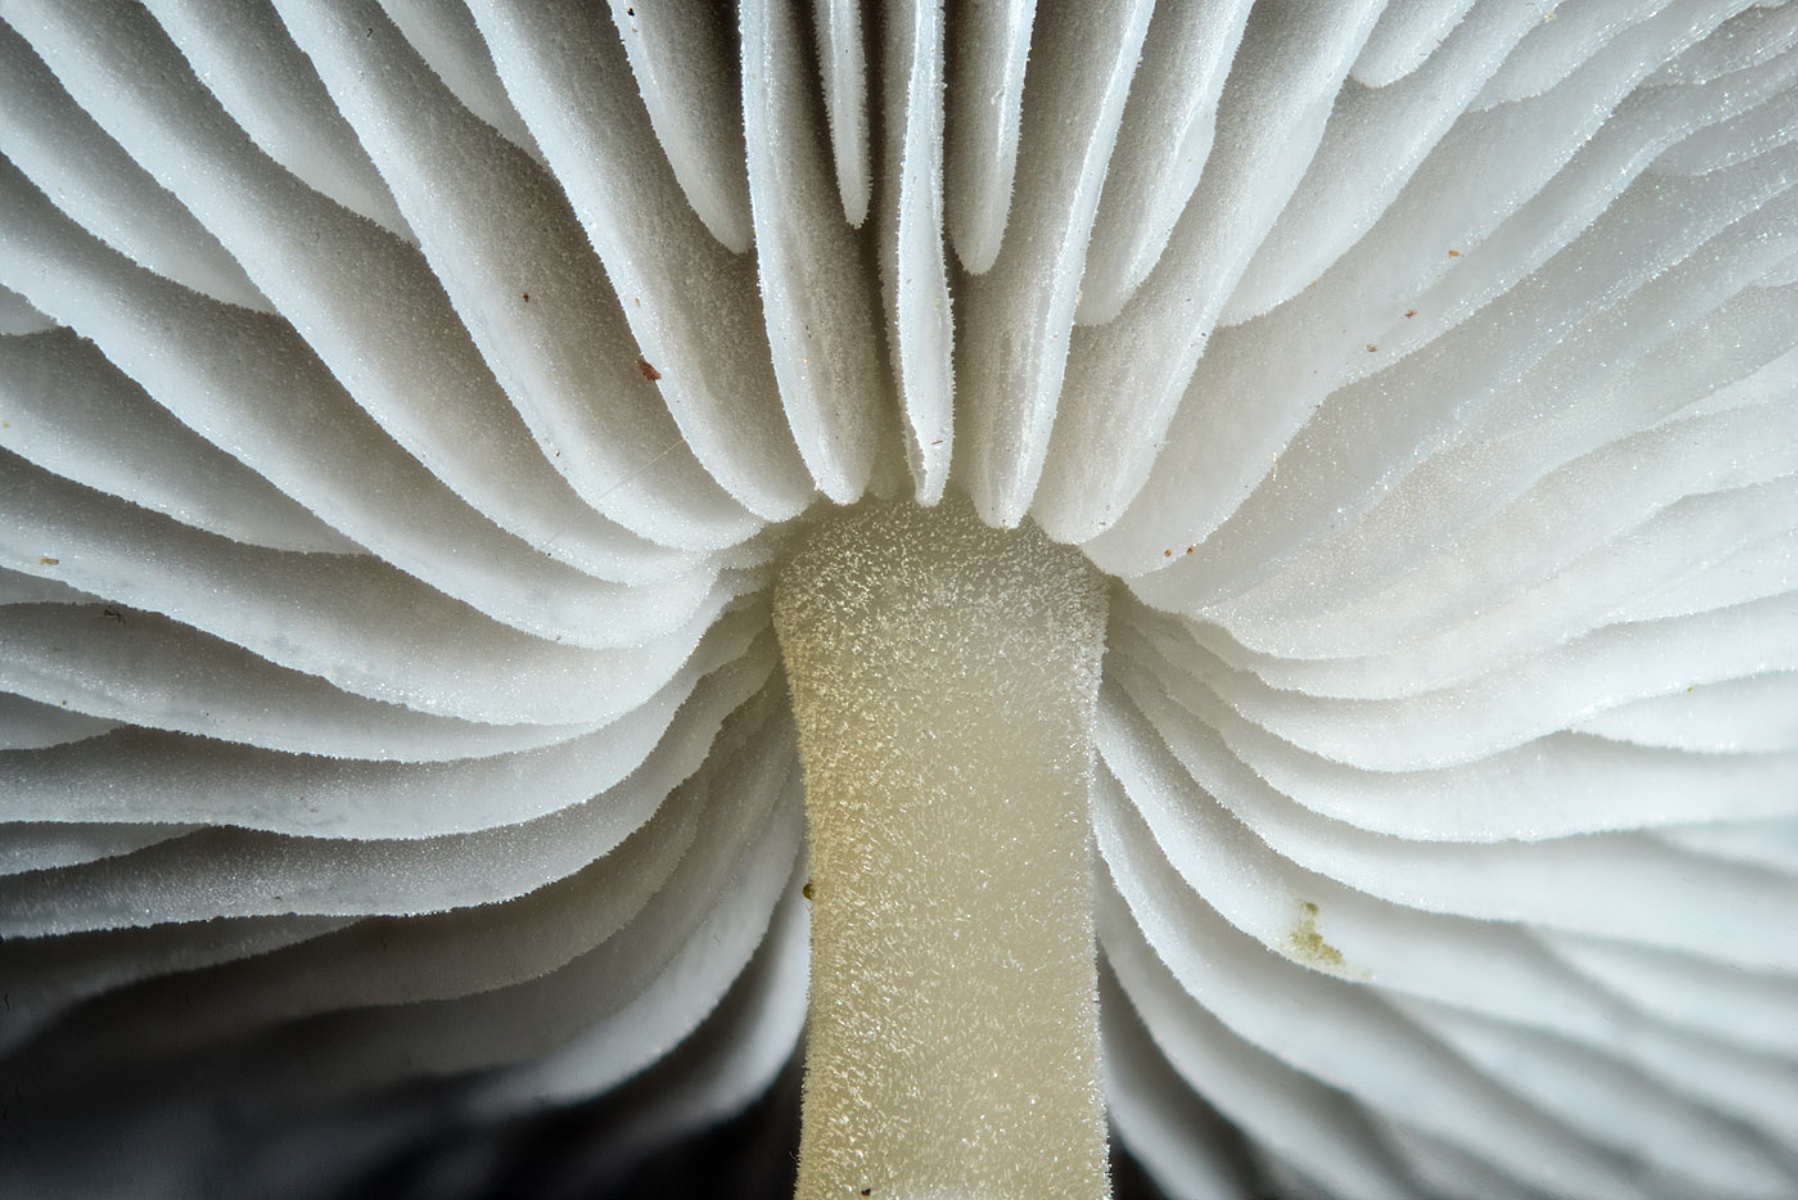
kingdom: Fungi
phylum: Basidiomycota
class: Agaricomycetes
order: Agaricales
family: Physalacriaceae
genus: Strobilurus
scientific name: Strobilurus esculentus
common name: gran-koglehat
